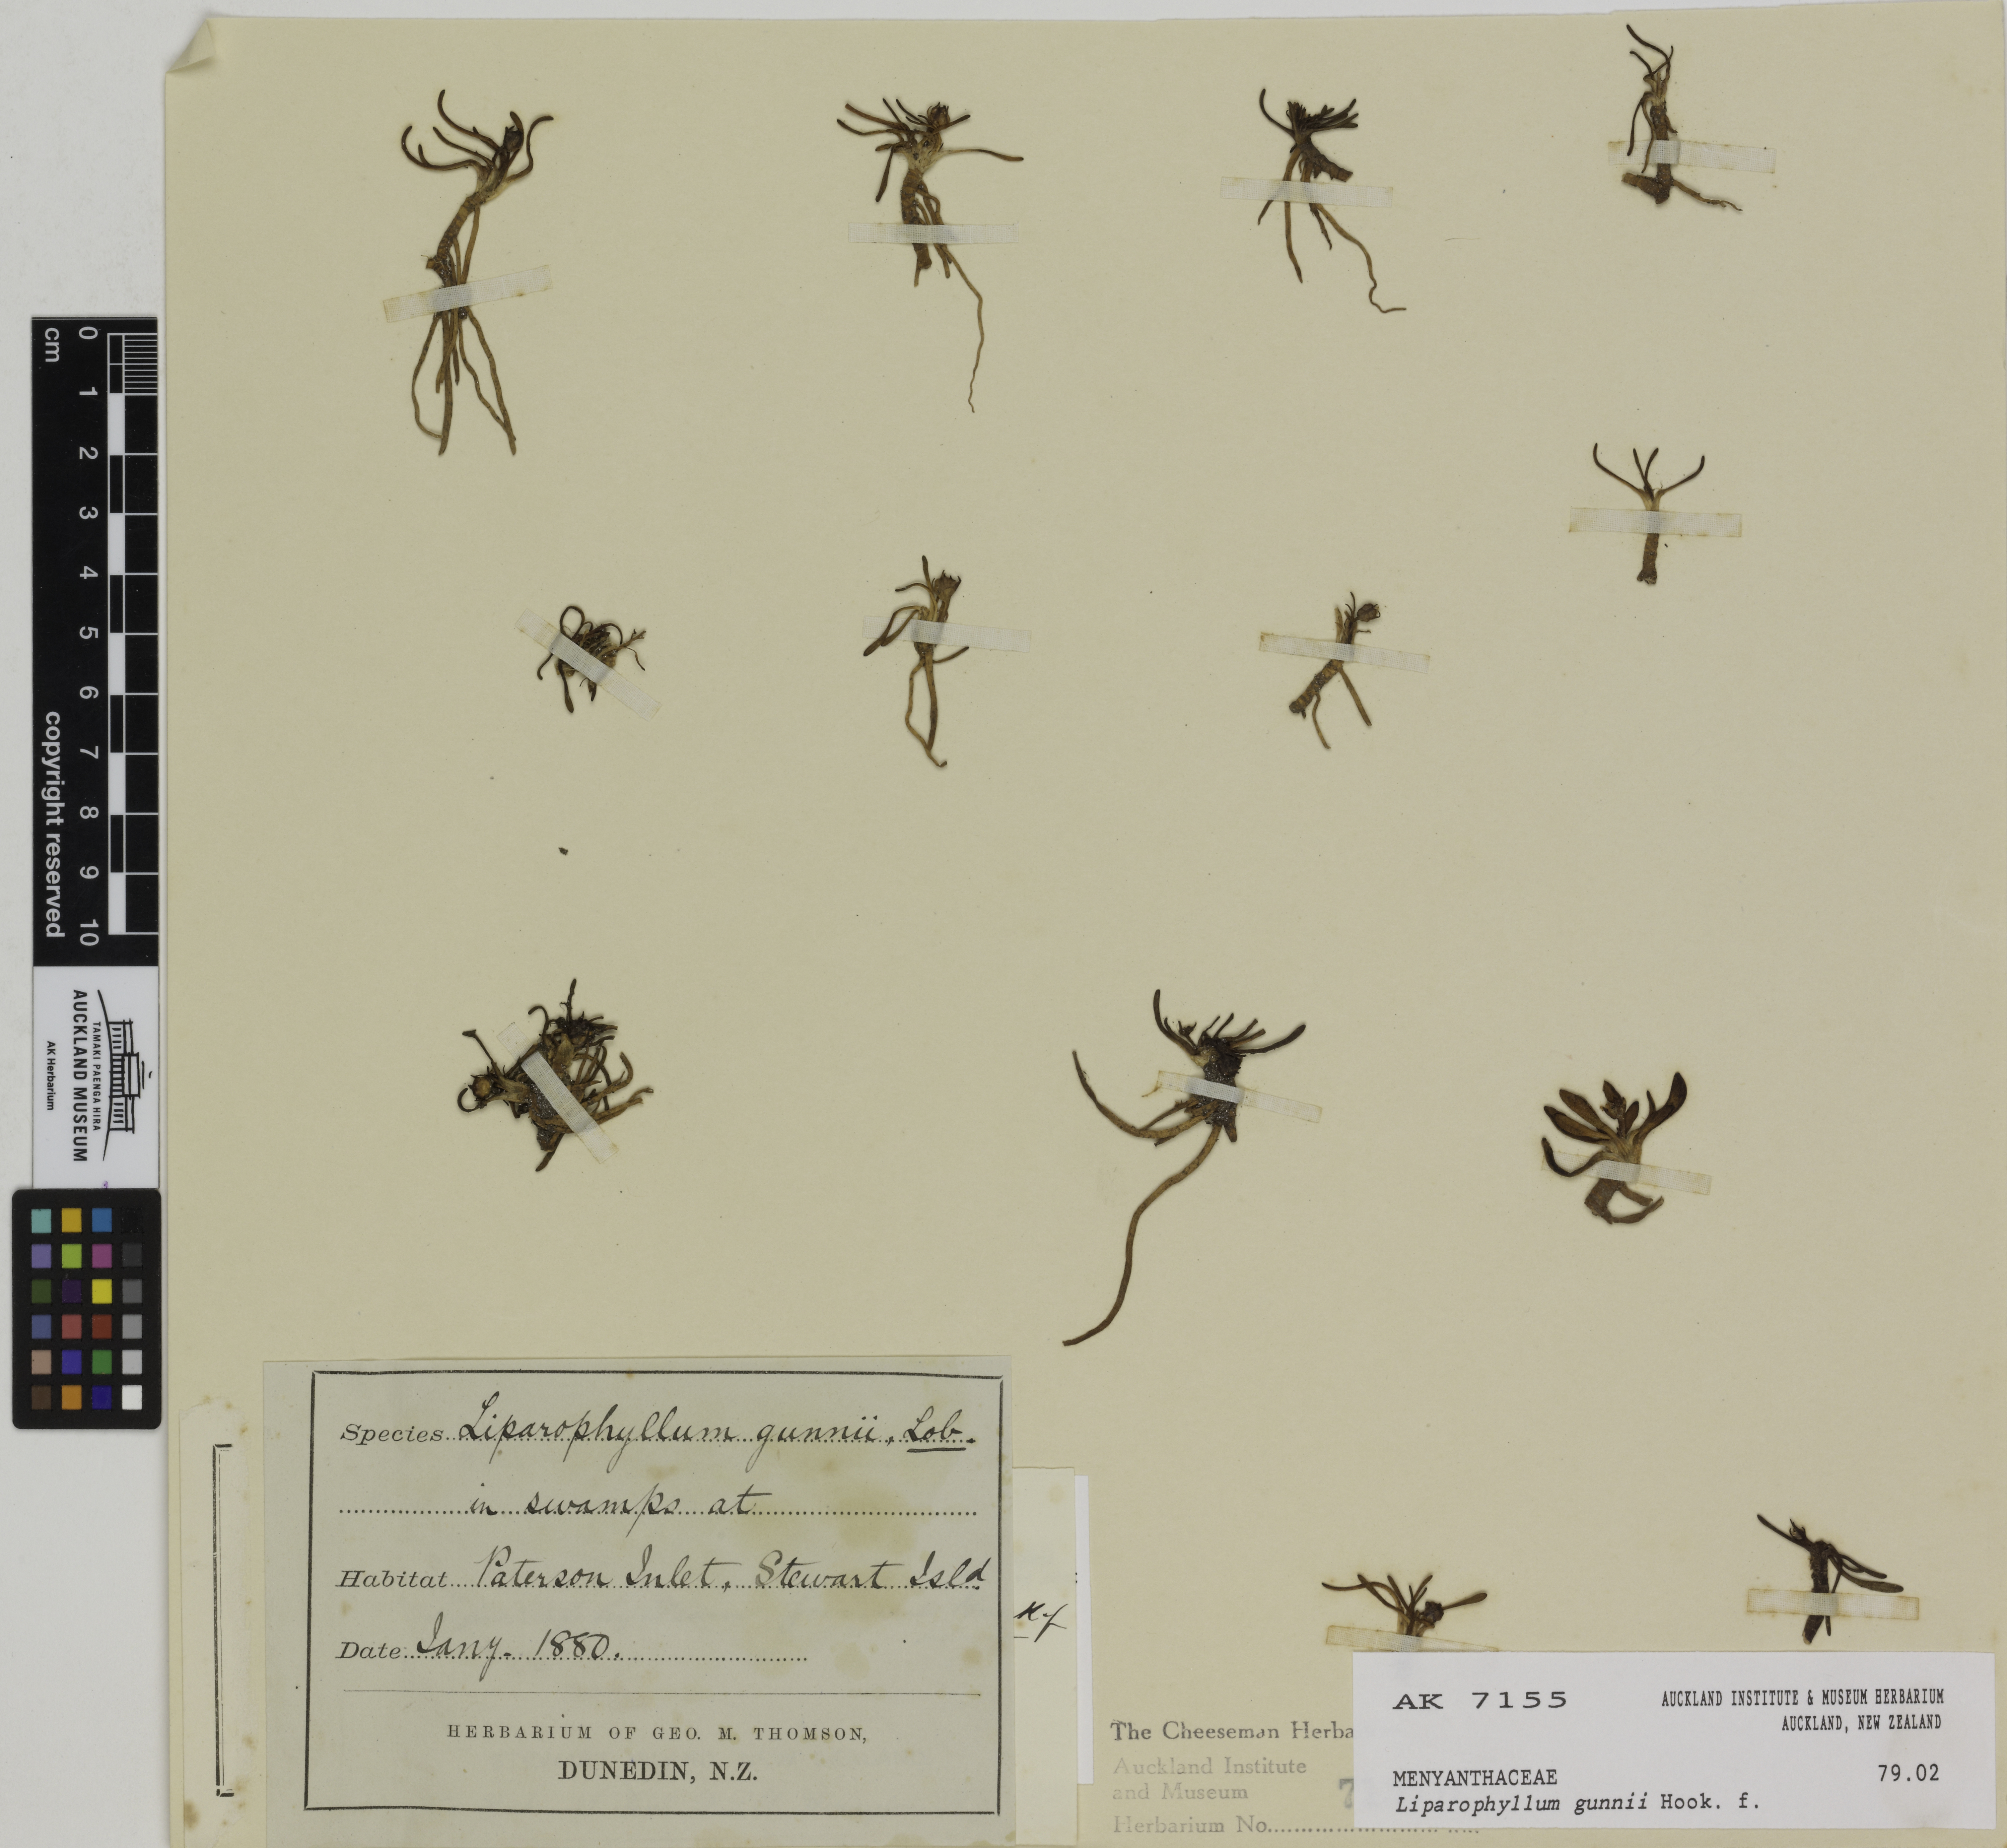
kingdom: Plantae
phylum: Tracheophyta
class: Magnoliopsida
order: Asterales
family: Menyanthaceae
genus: Liparophyllum
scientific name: Liparophyllum gunnii
